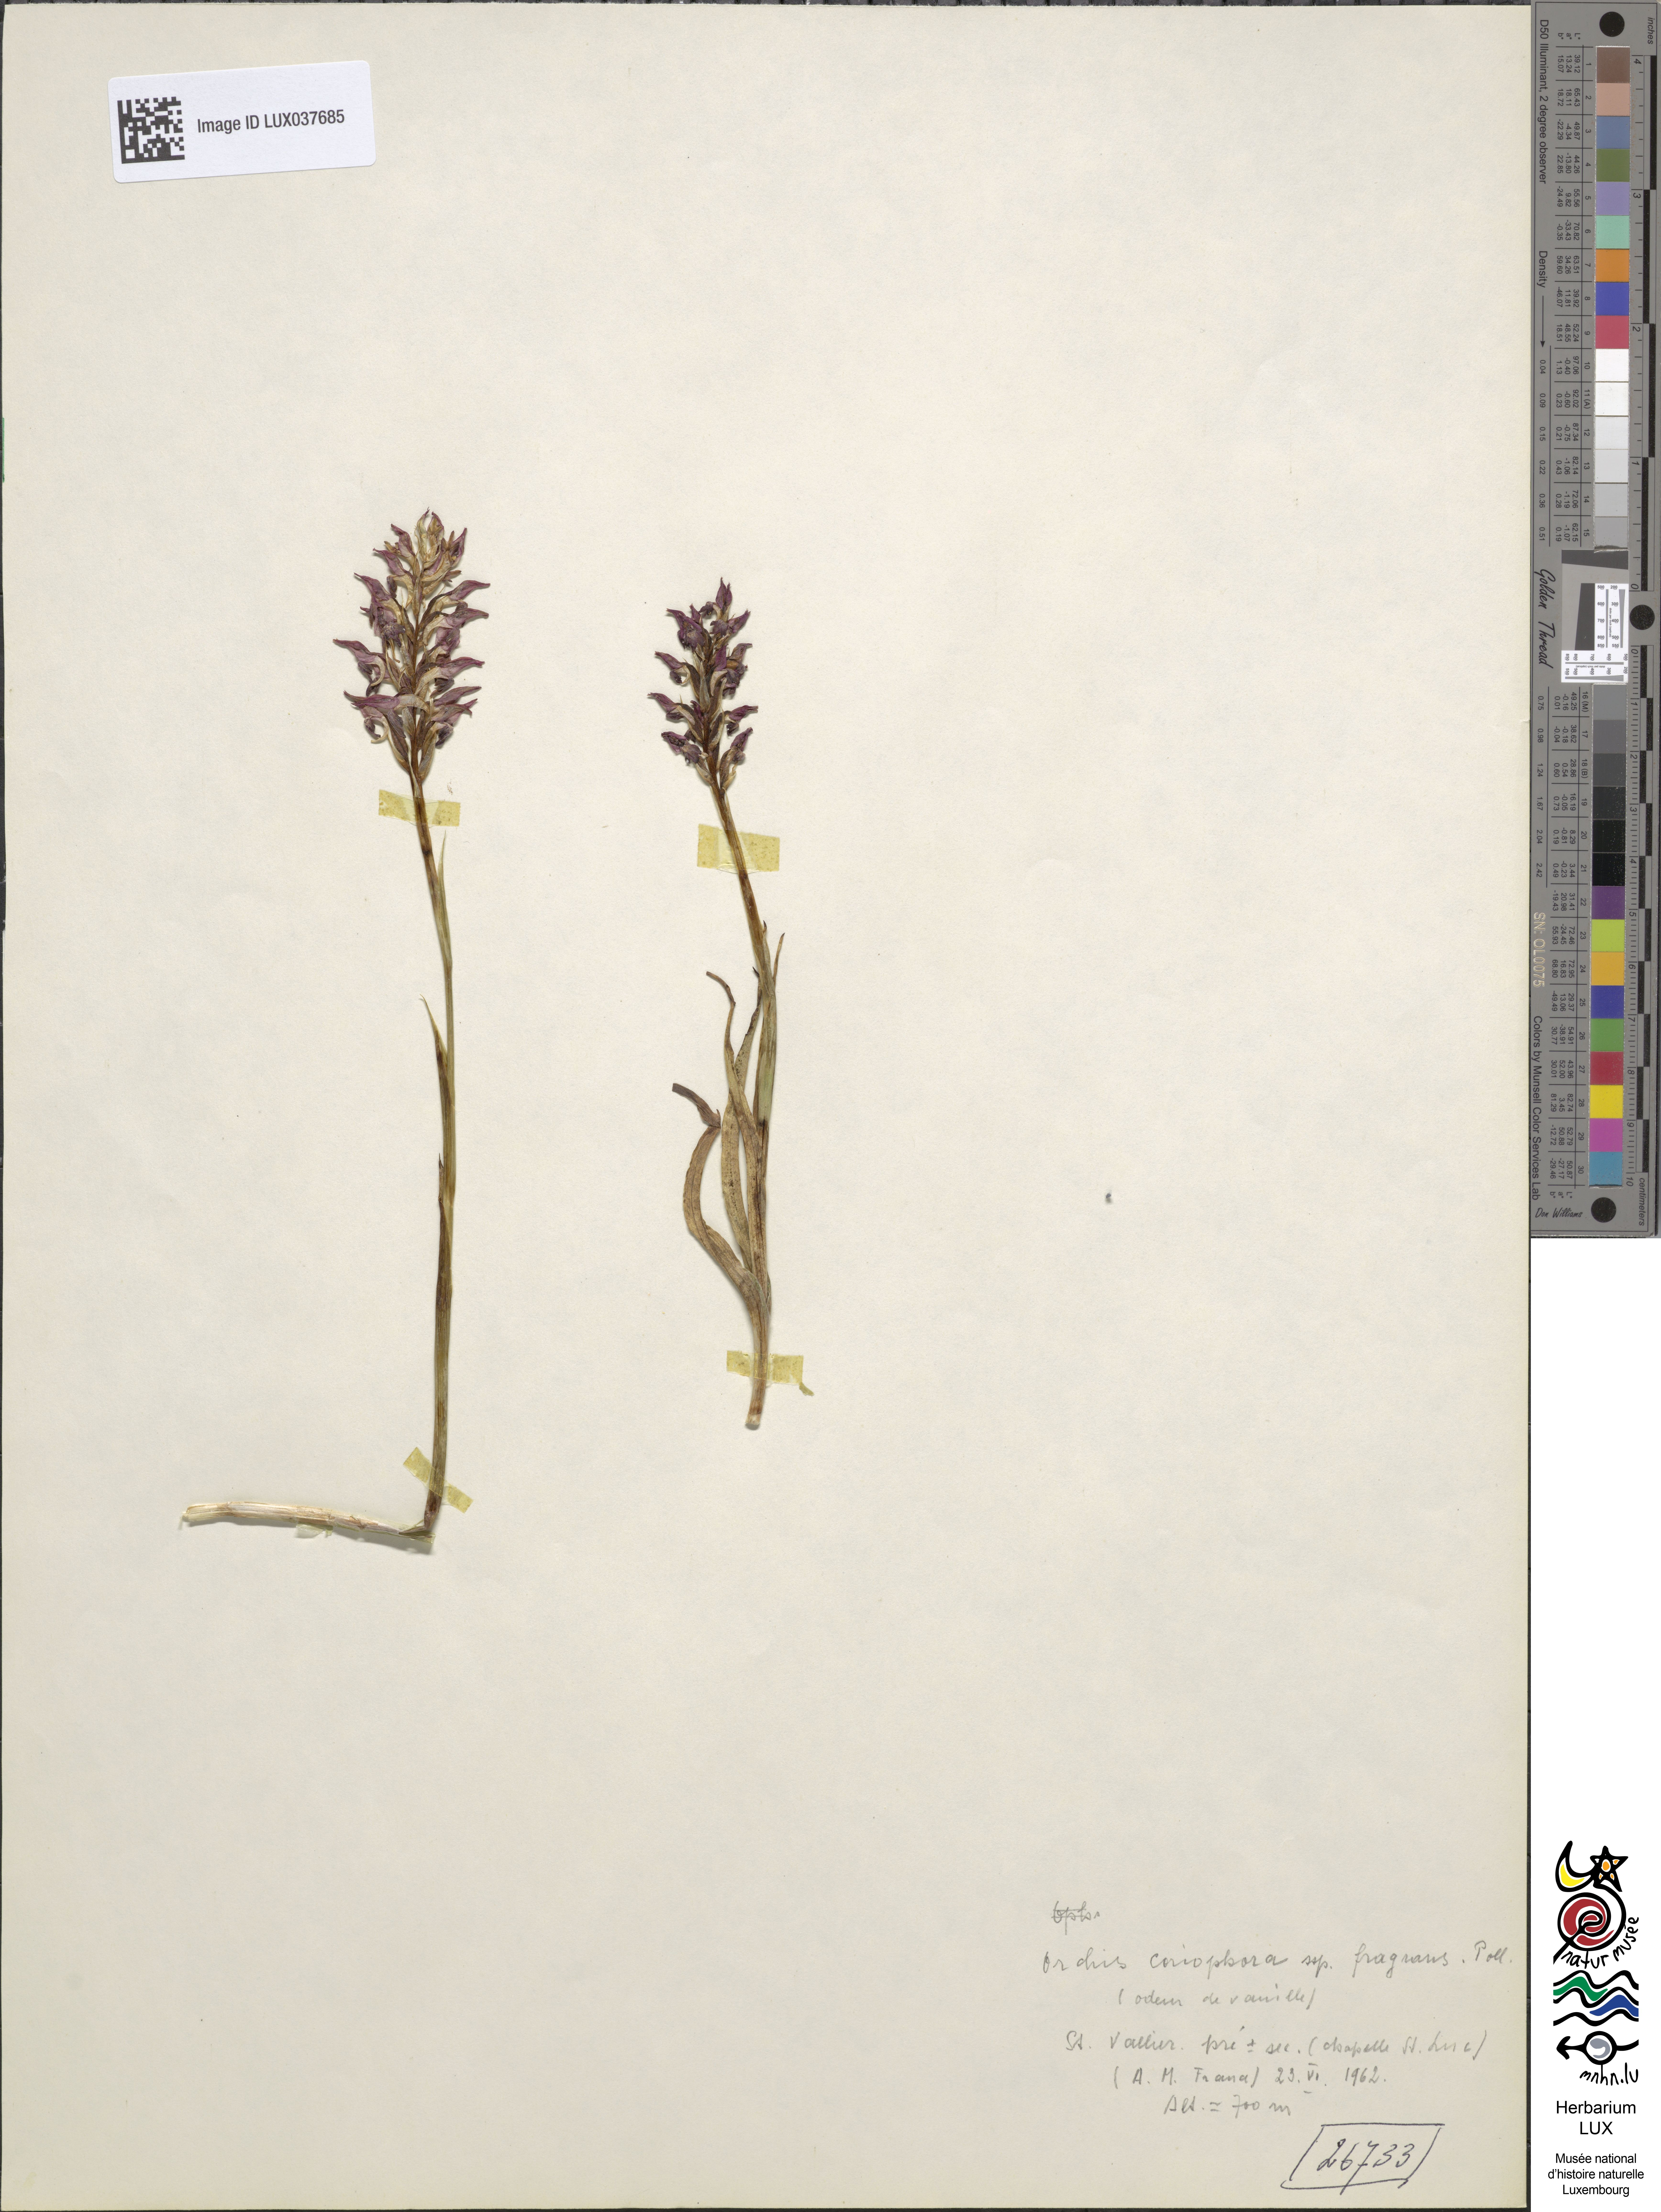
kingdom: Plantae
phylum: Tracheophyta
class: Liliopsida
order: Asparagales
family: Orchidaceae
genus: Anacamptis
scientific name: Anacamptis coriophora
